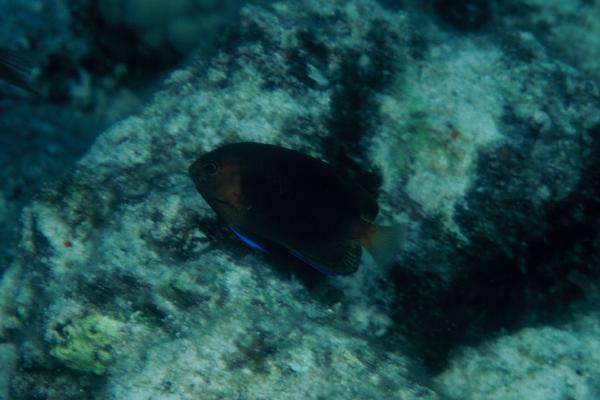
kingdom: Animalia
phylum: Chordata
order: Perciformes
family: Pomacanthidae
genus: Centropyge
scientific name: Centropyge fisheri
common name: Whitetail angelfish
